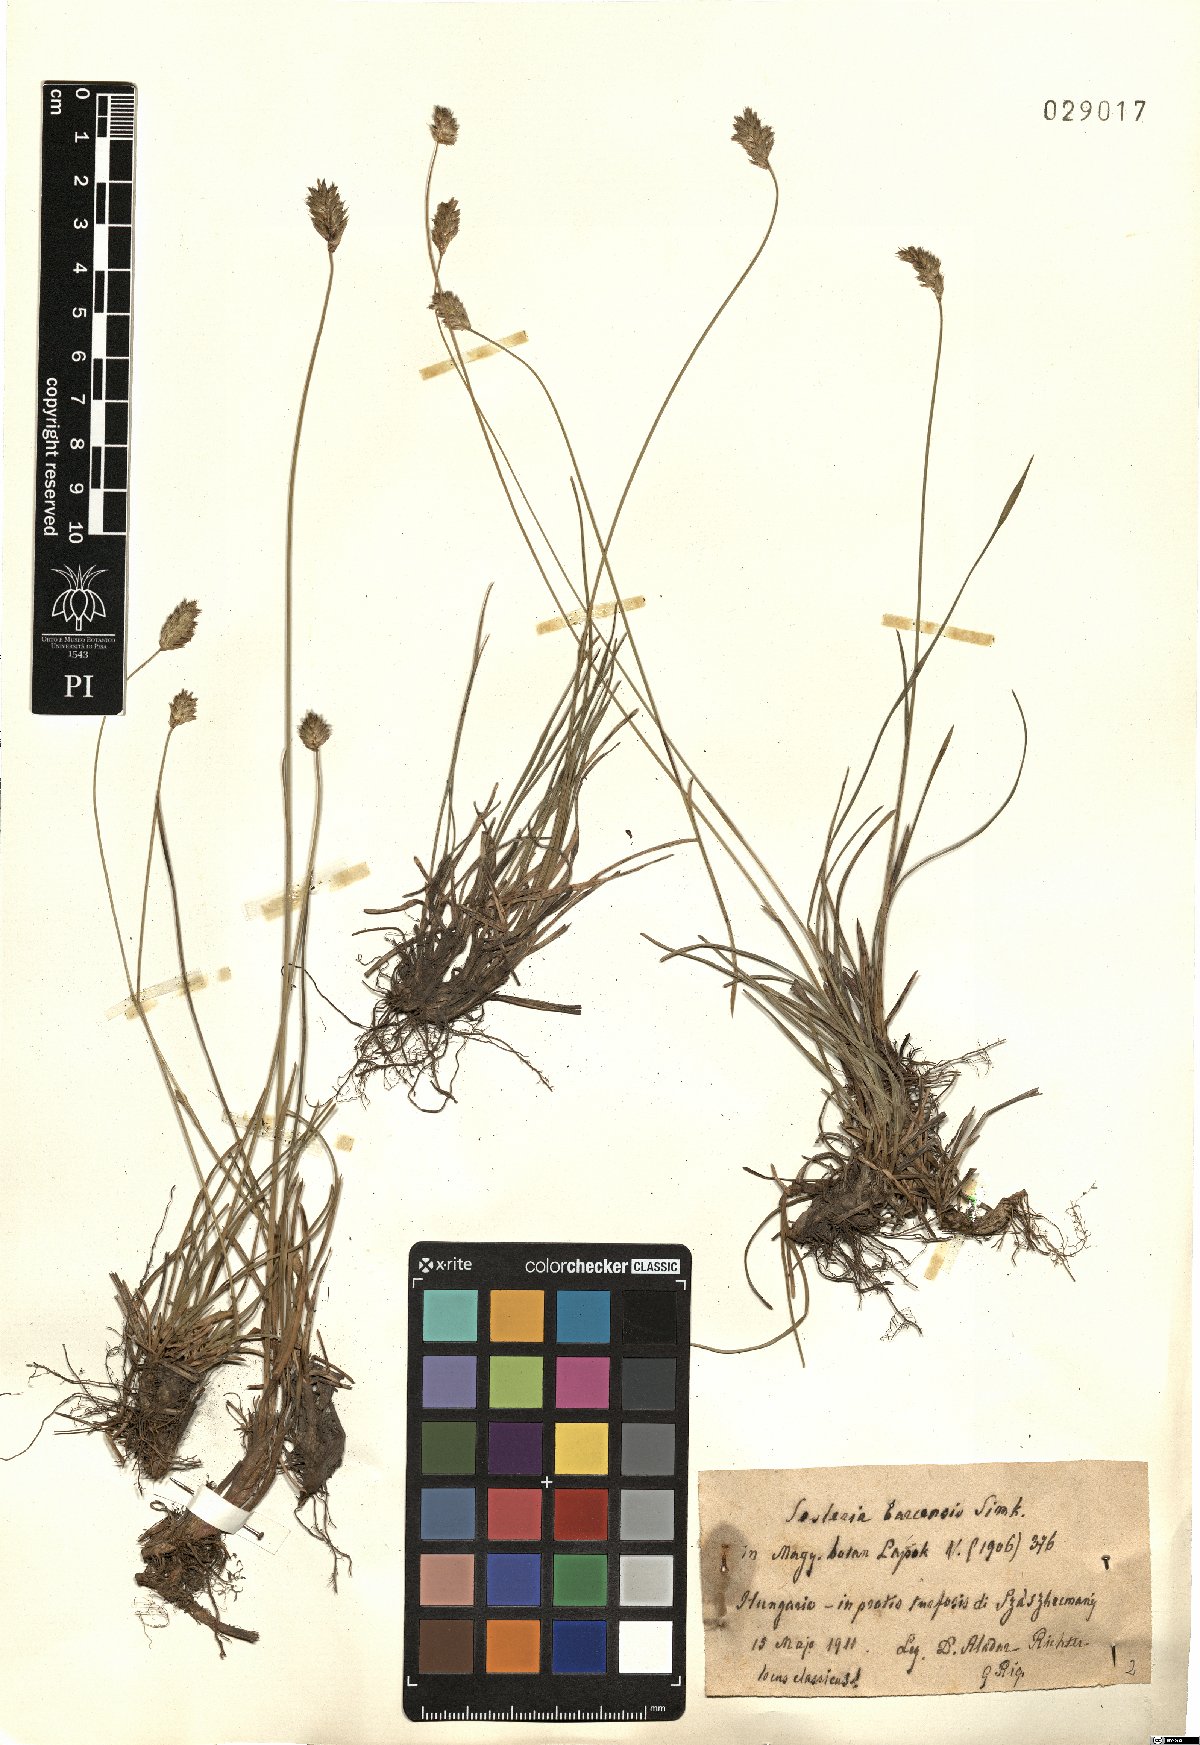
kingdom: Plantae
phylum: Tracheophyta
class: Liliopsida
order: Poales
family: Poaceae
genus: Sesleria
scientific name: Sesleria caerulea
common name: Blue moor-grass
